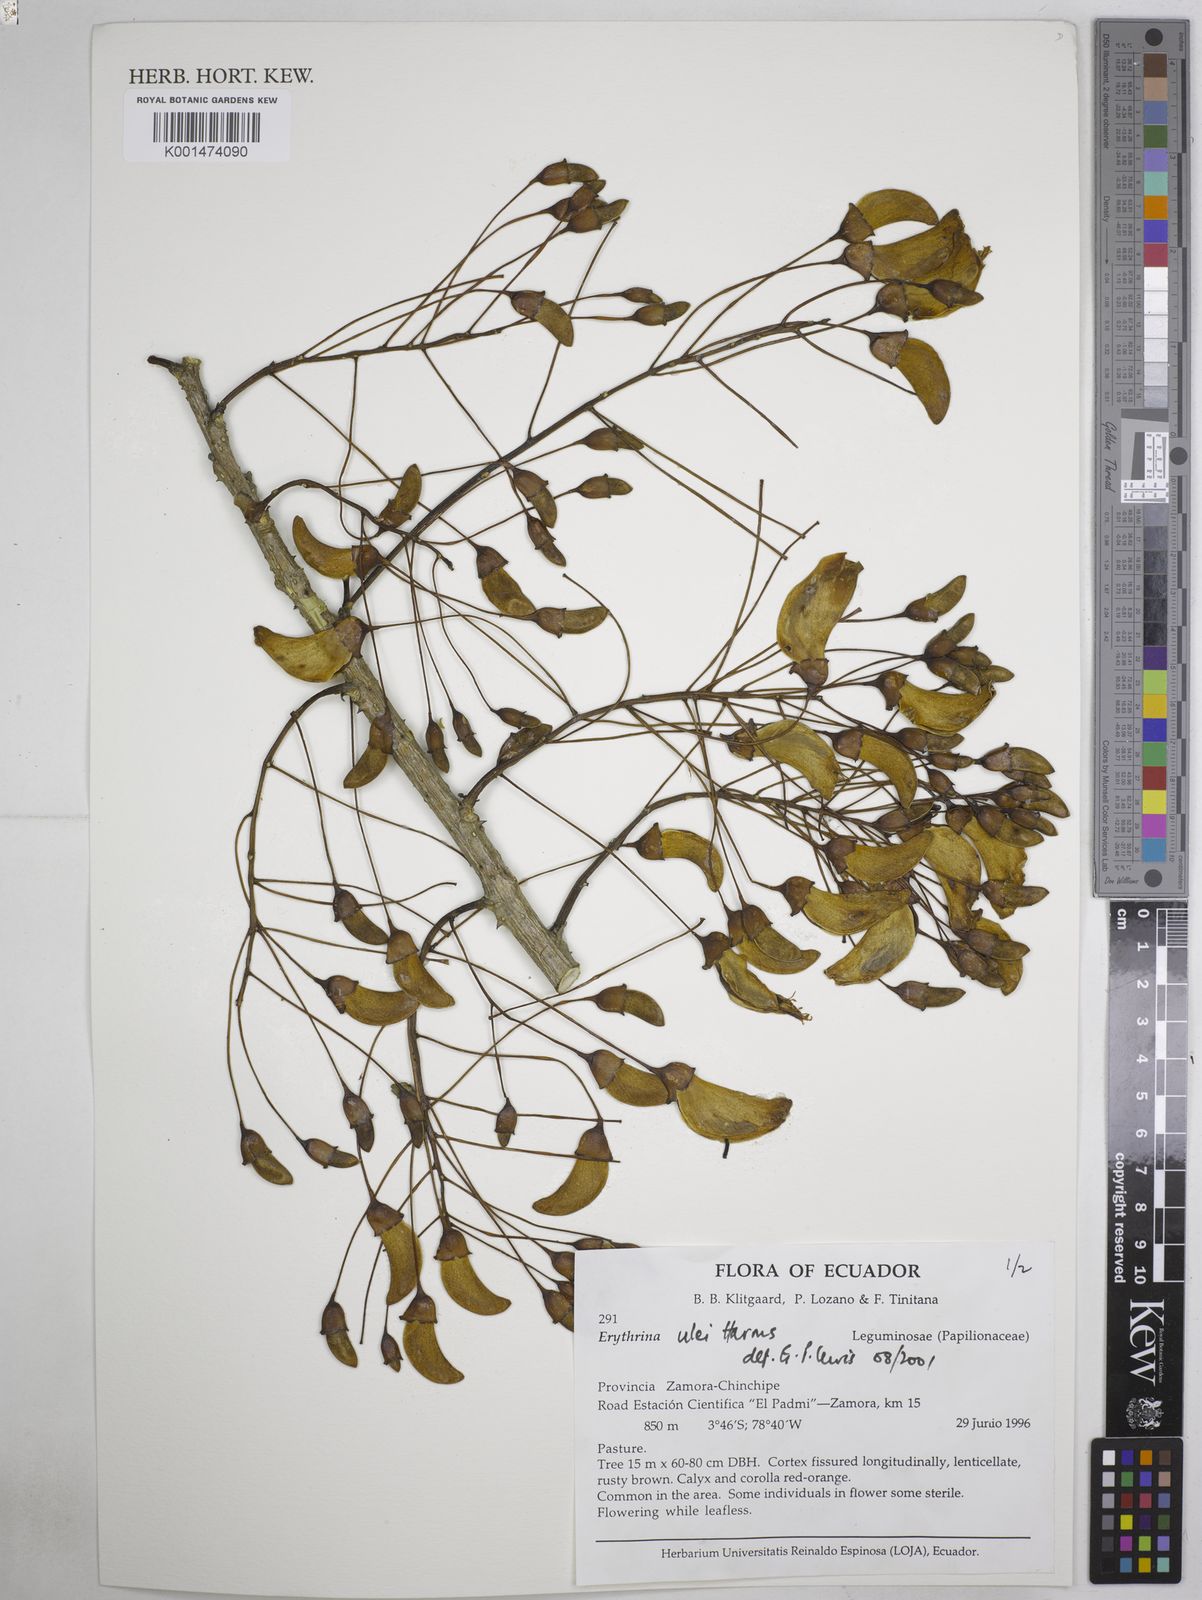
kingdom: Plantae
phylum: Tracheophyta
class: Magnoliopsida
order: Fabales
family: Fabaceae
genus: Erythrina
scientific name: Erythrina ulei
